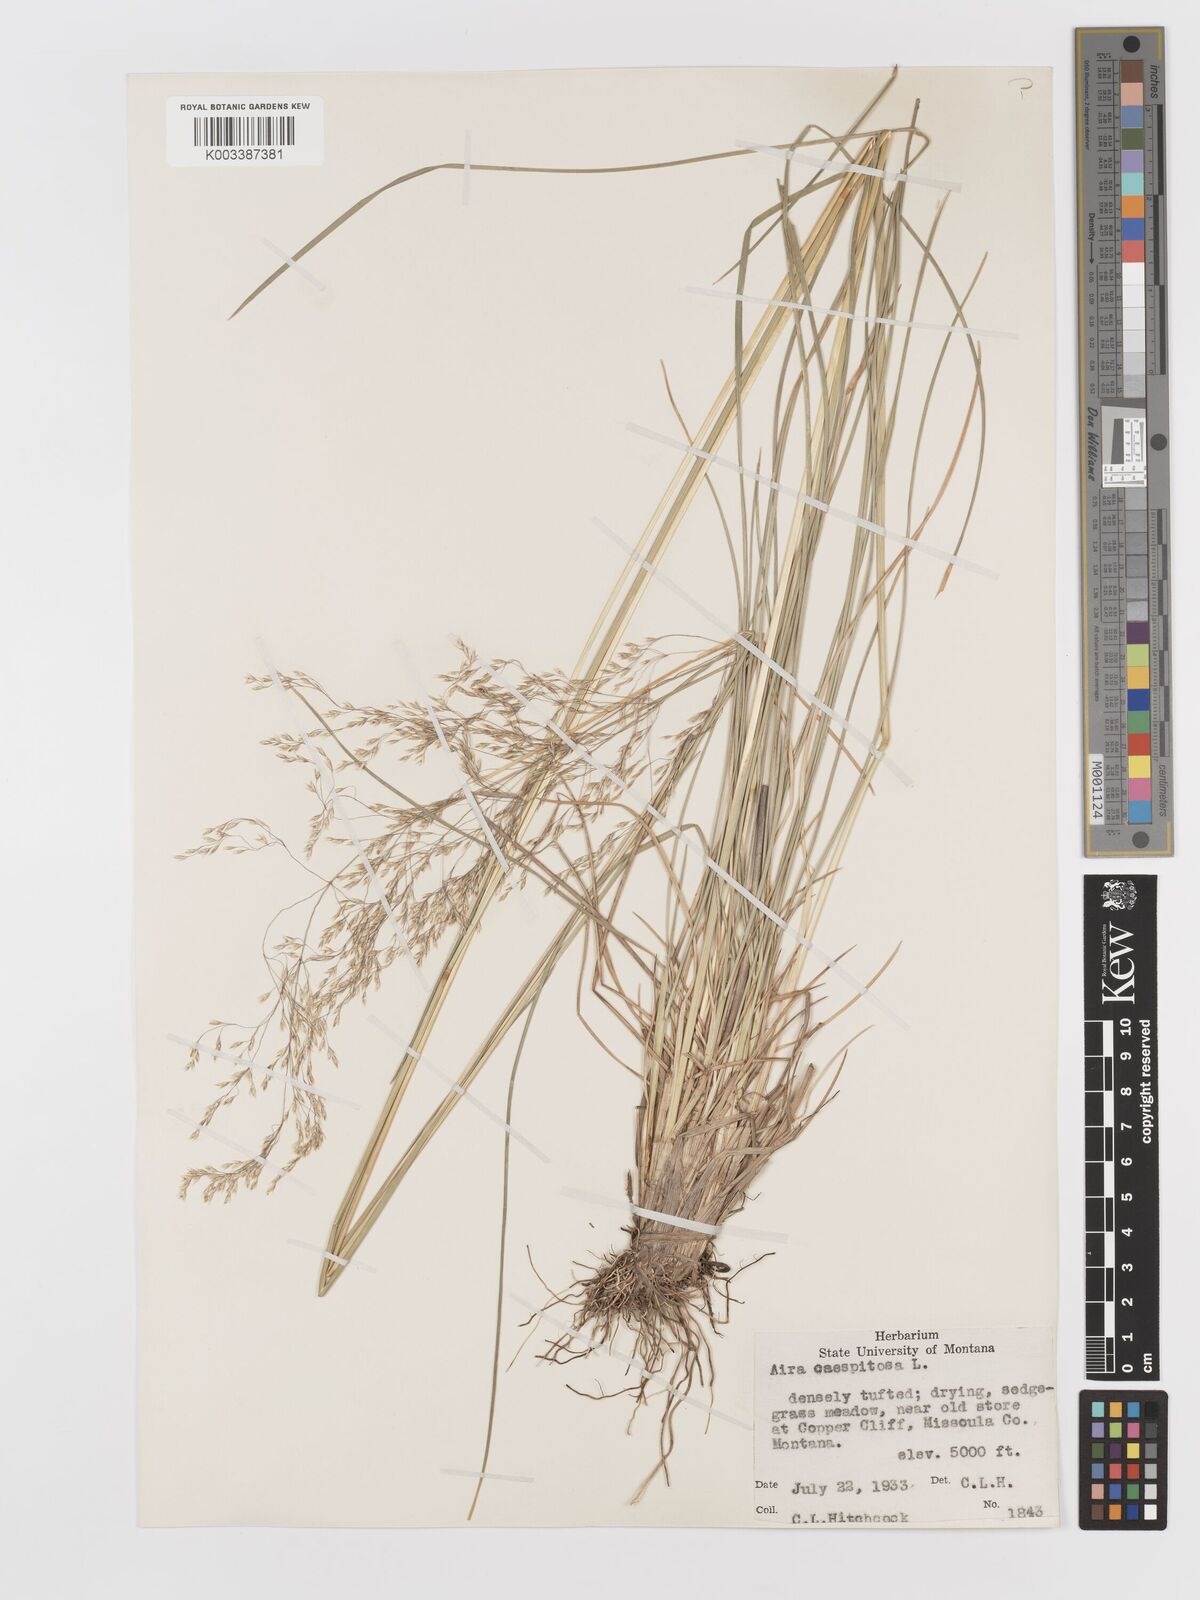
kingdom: Plantae
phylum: Tracheophyta
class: Liliopsida
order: Poales
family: Poaceae
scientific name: Poaceae
